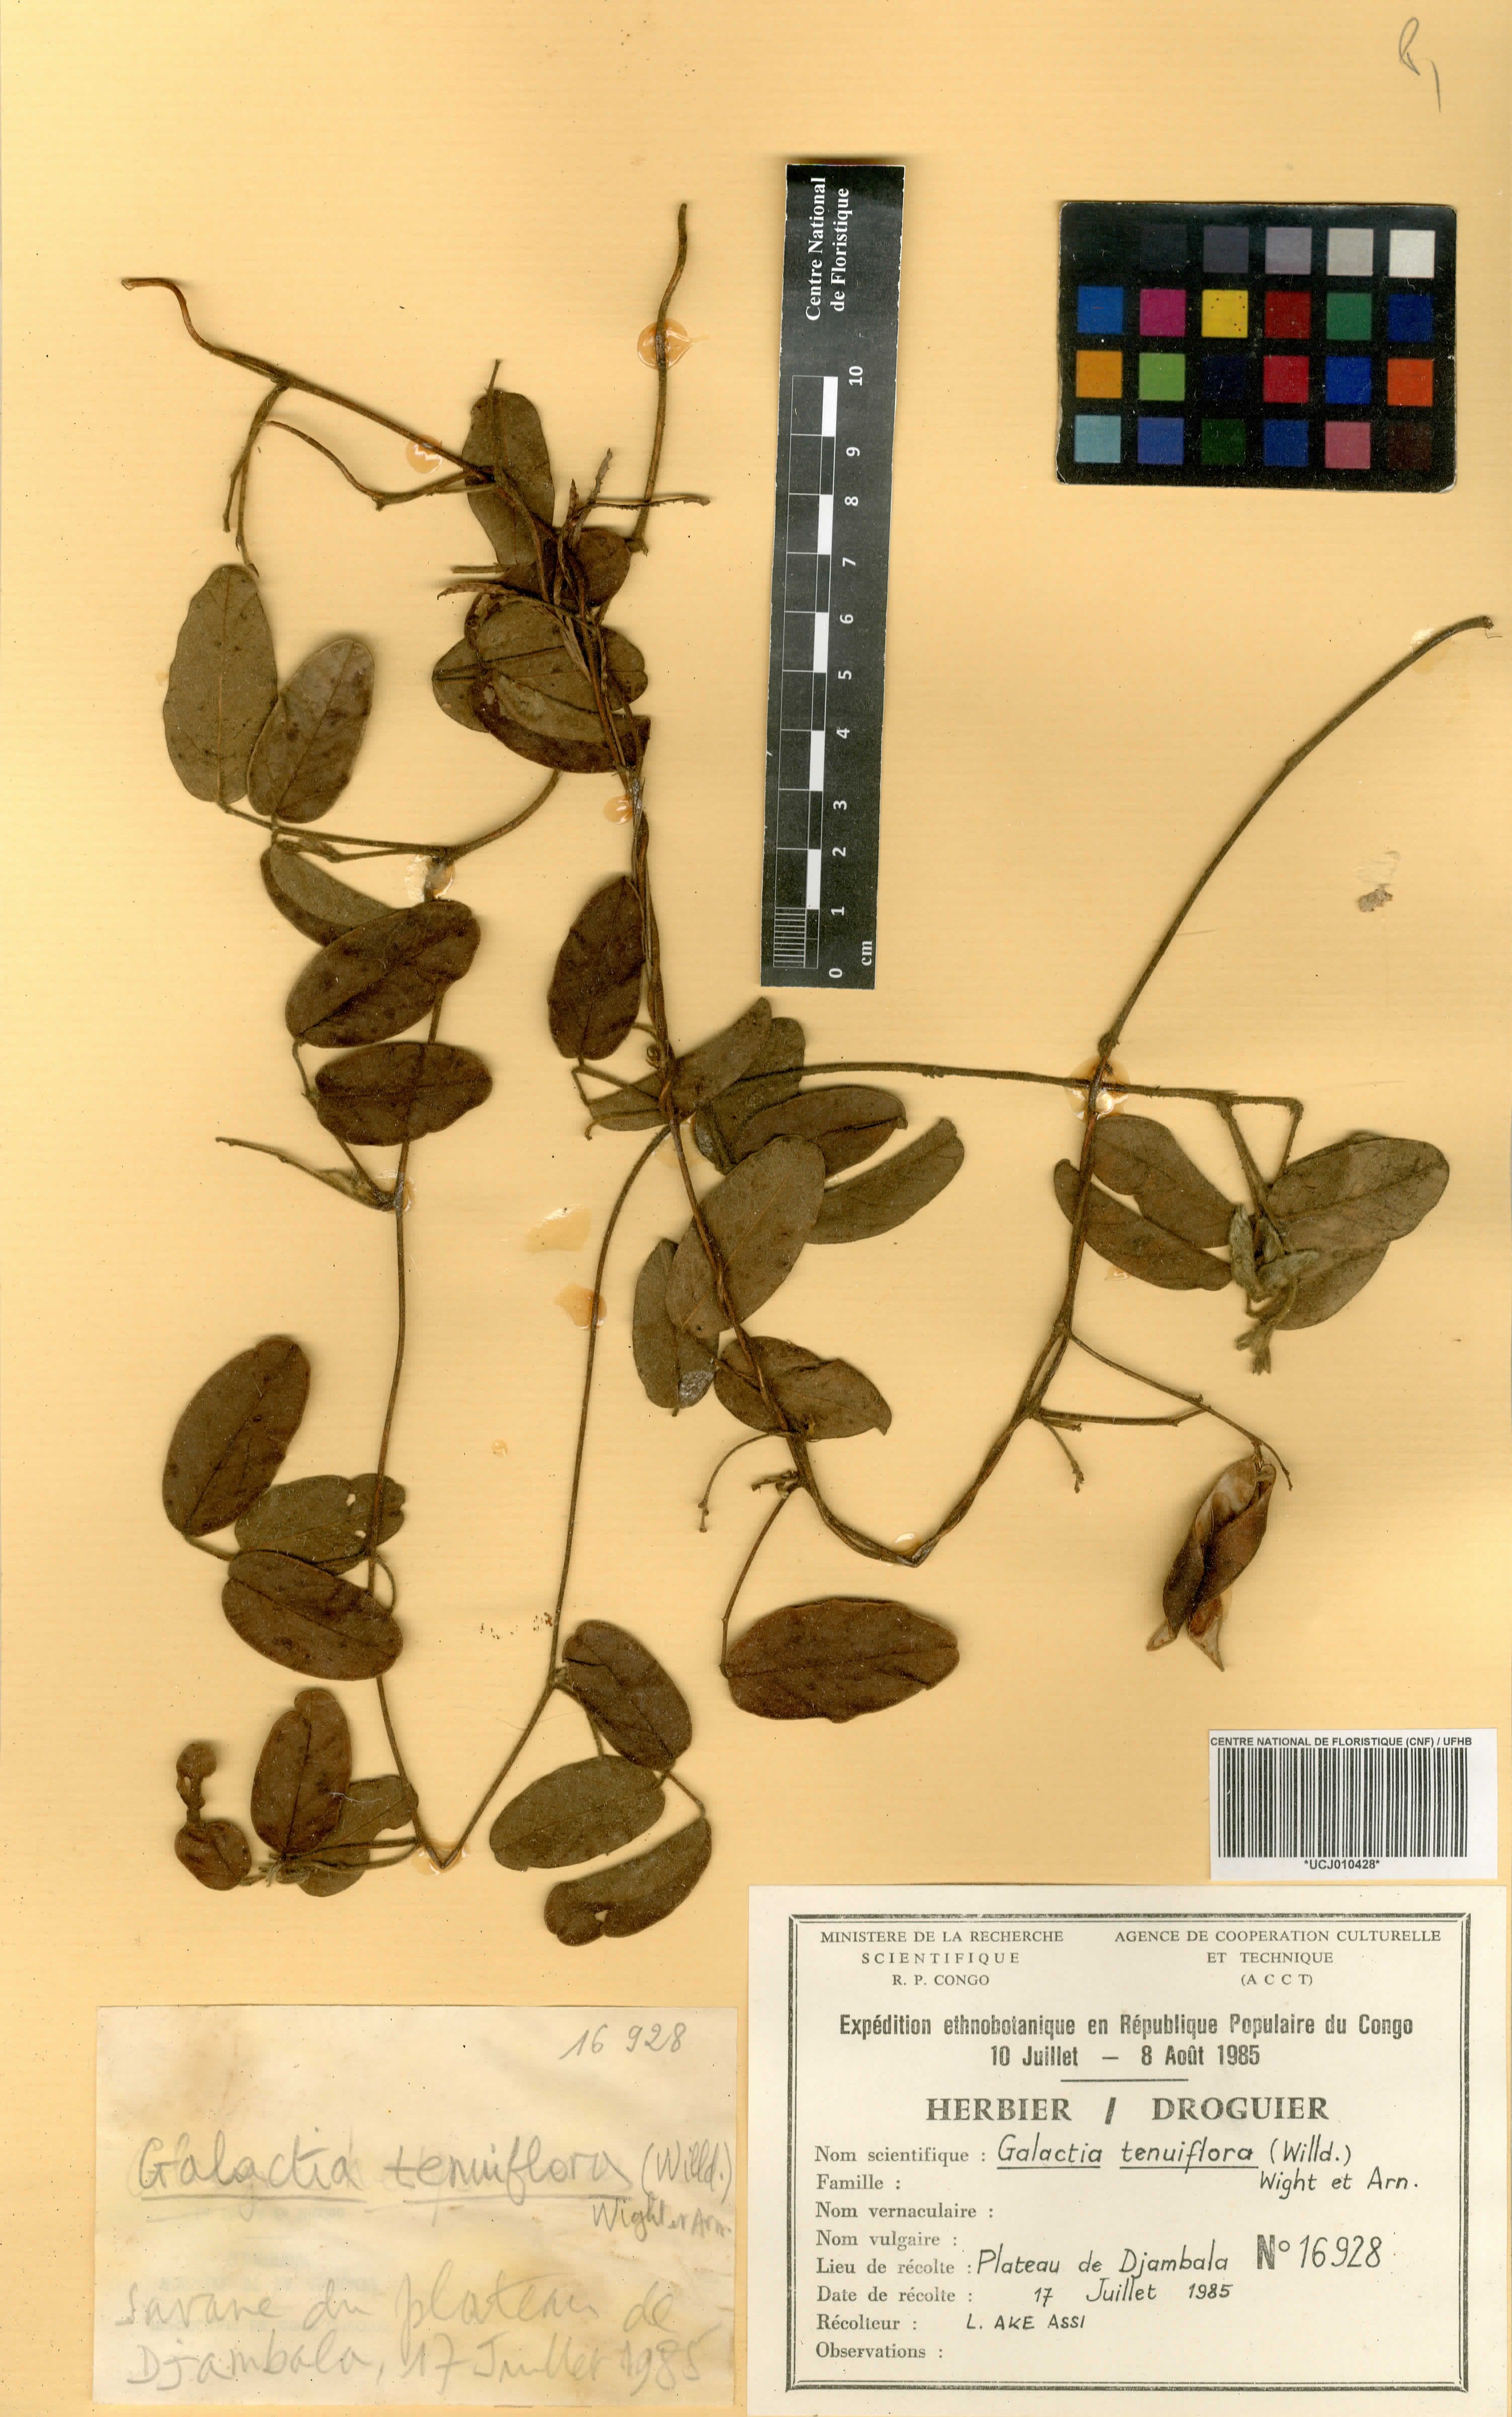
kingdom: Plantae
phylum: Tracheophyta
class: Magnoliopsida
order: Fabales
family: Fabaceae
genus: Galactia
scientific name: Galactia striata
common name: Florida hammock milkpea
